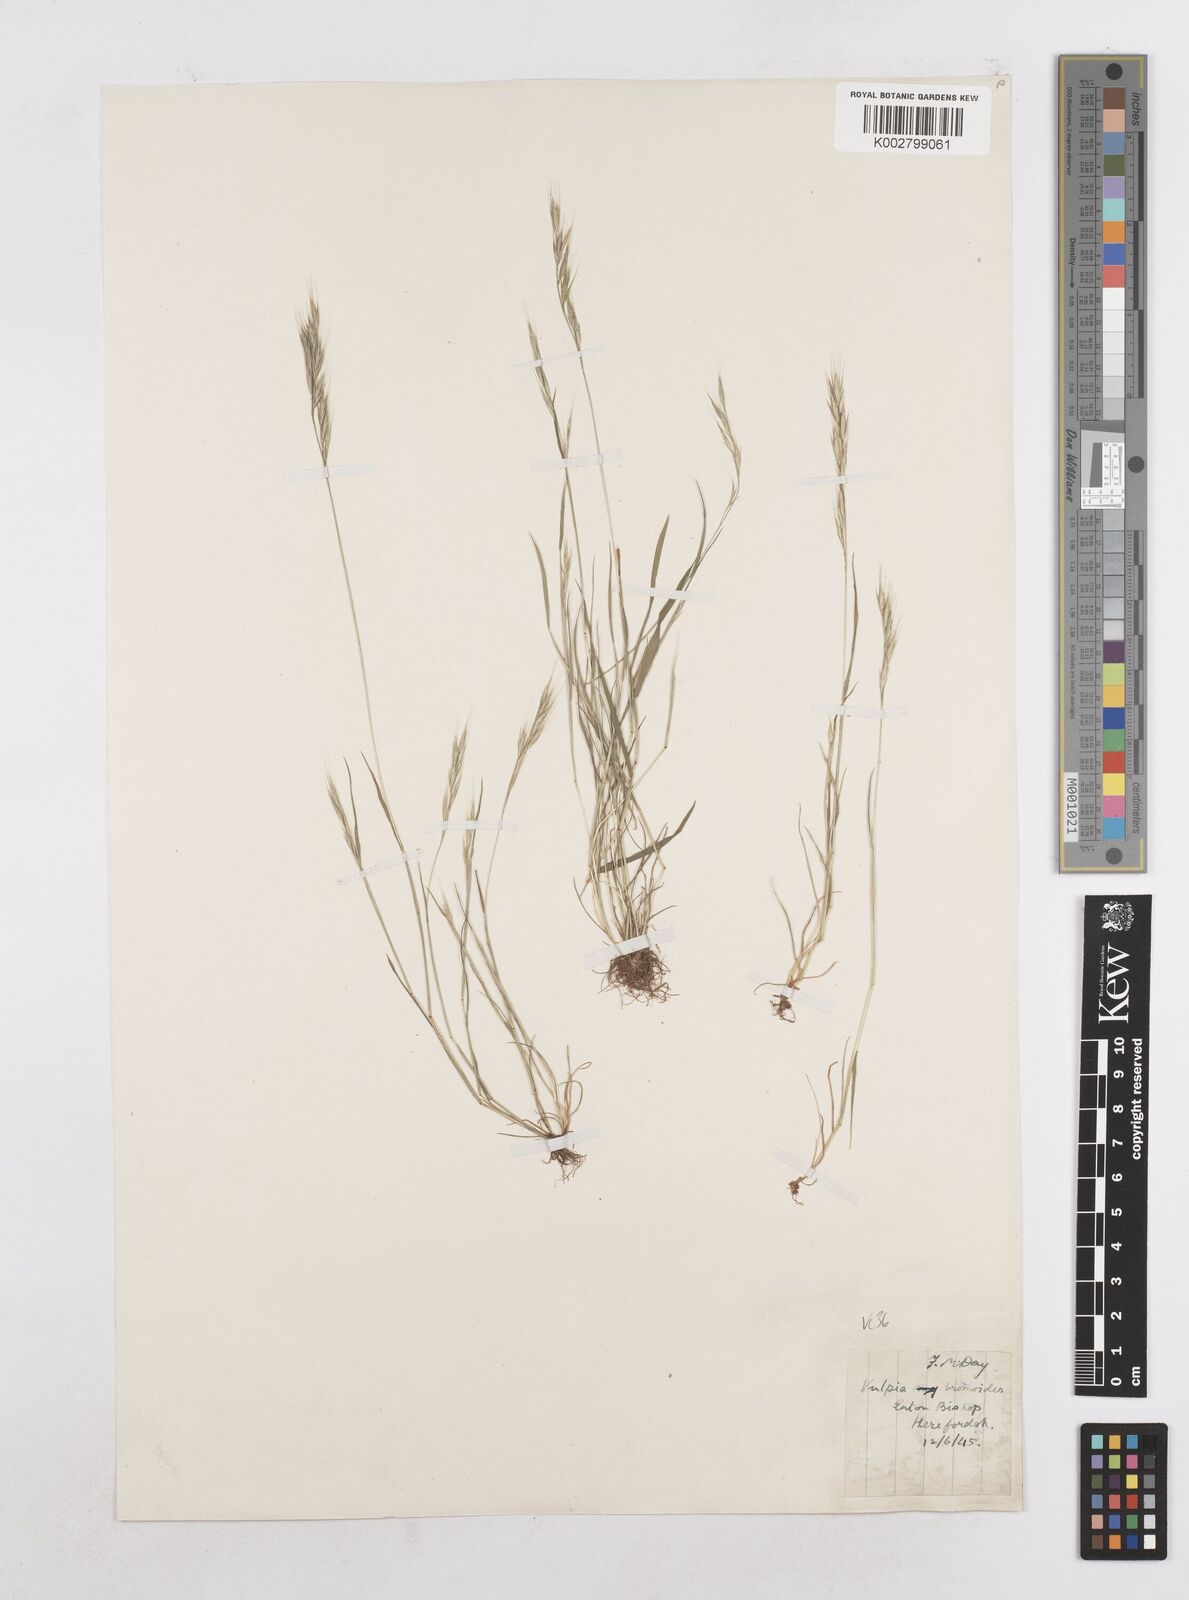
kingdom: Plantae
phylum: Tracheophyta
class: Liliopsida
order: Poales
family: Poaceae
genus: Festuca
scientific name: Festuca bromoides
